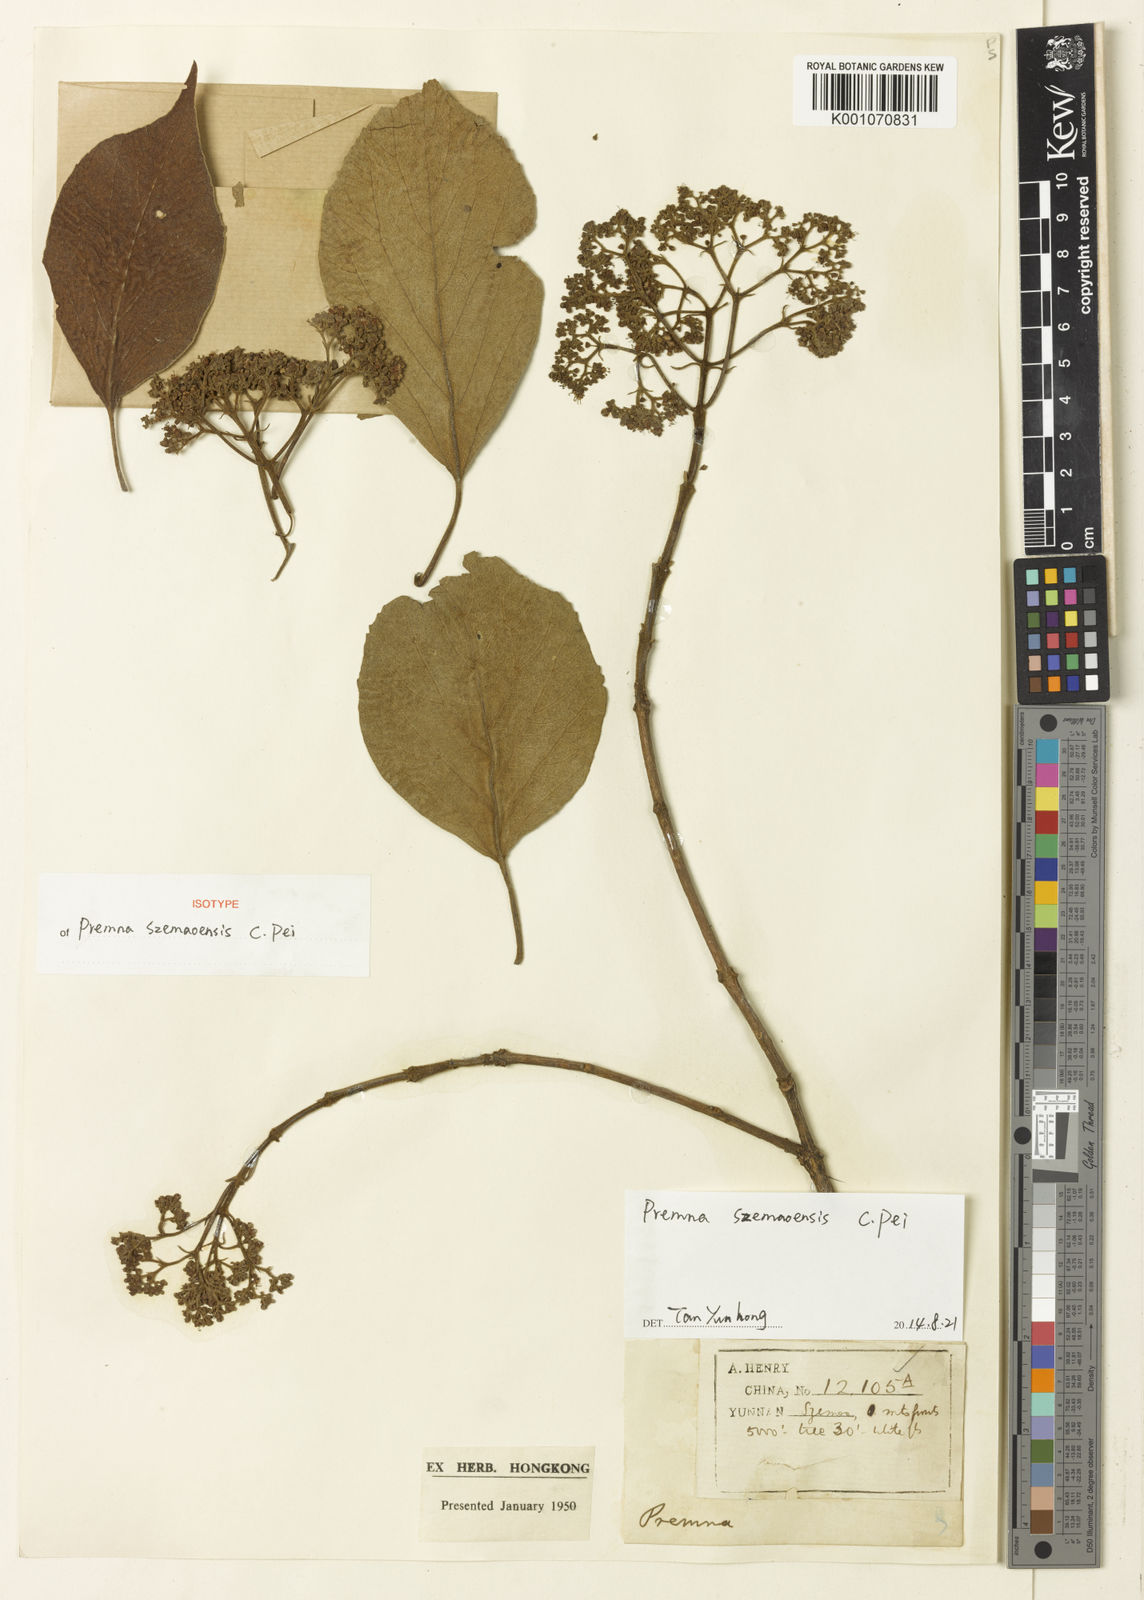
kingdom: Plantae
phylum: Tracheophyta
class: Magnoliopsida
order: Lamiales
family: Lamiaceae
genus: Premna
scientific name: Premna szemaoensis
